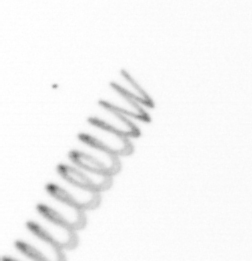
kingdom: Chromista
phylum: Ochrophyta
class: Bacillariophyceae
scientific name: Bacillariophyceae
